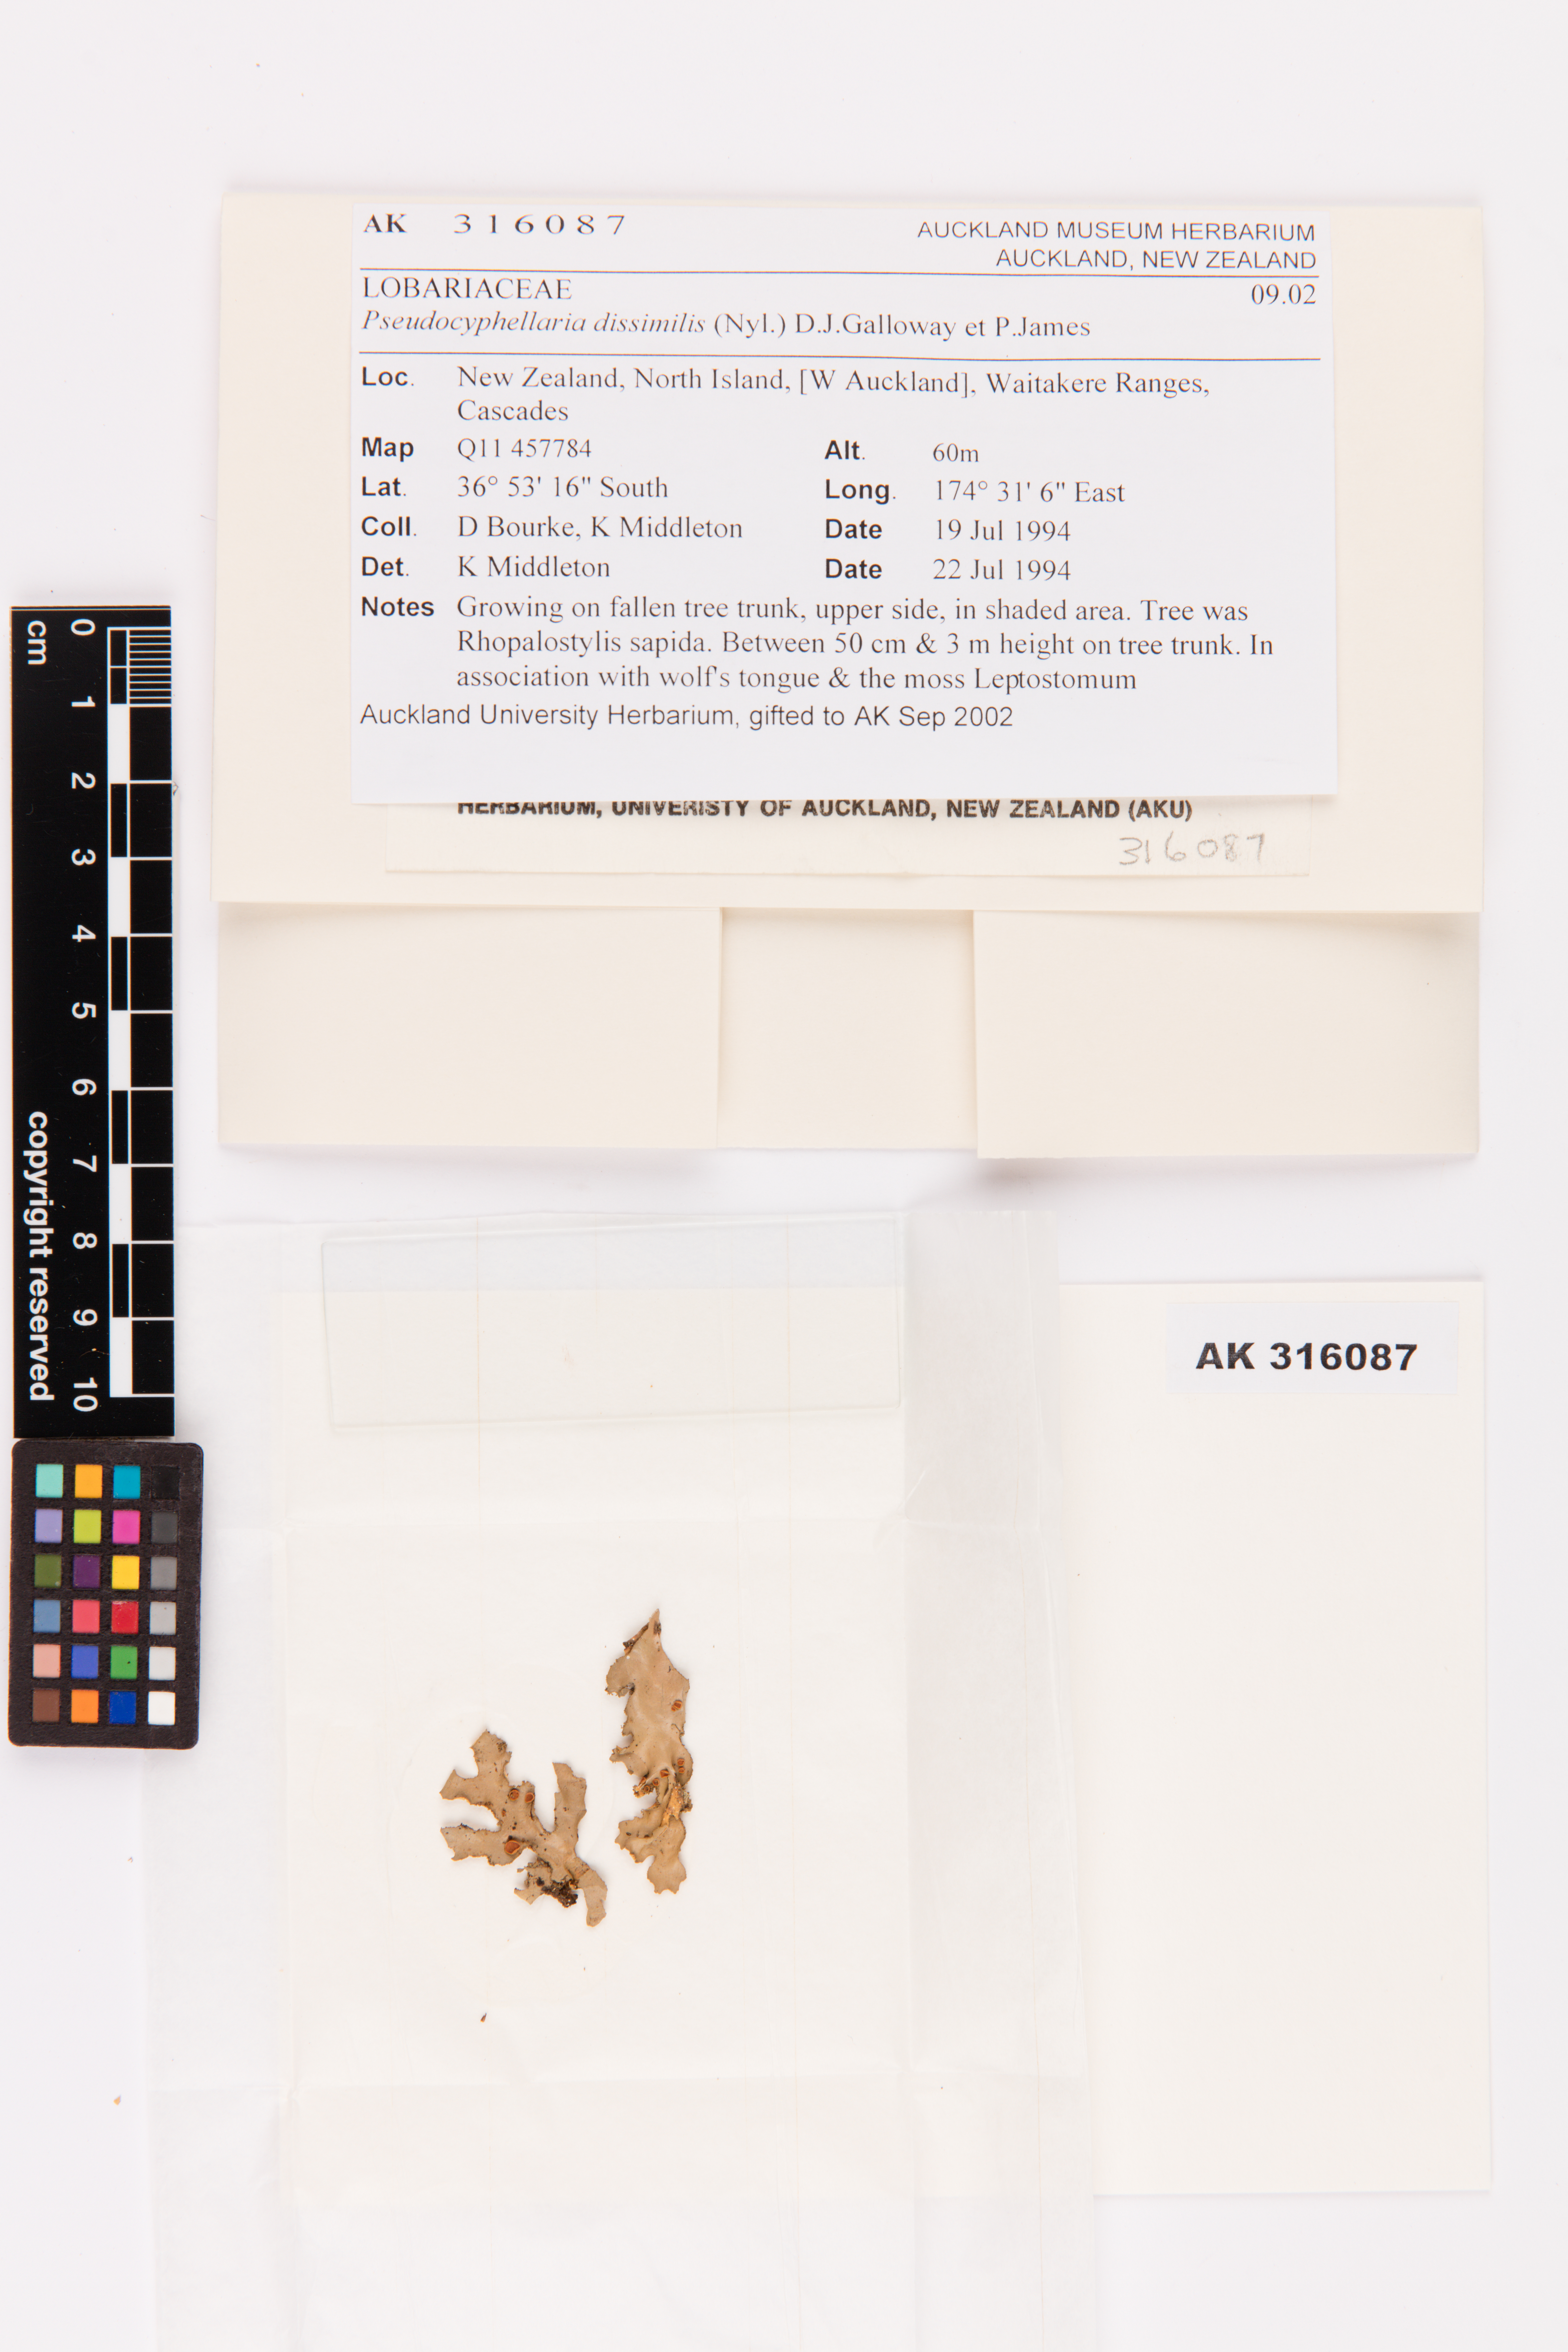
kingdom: Fungi
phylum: Ascomycota
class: Lecanoromycetes
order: Peltigerales
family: Lobariaceae
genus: Pseudocyphellaria
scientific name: Pseudocyphellaria dissimilis
